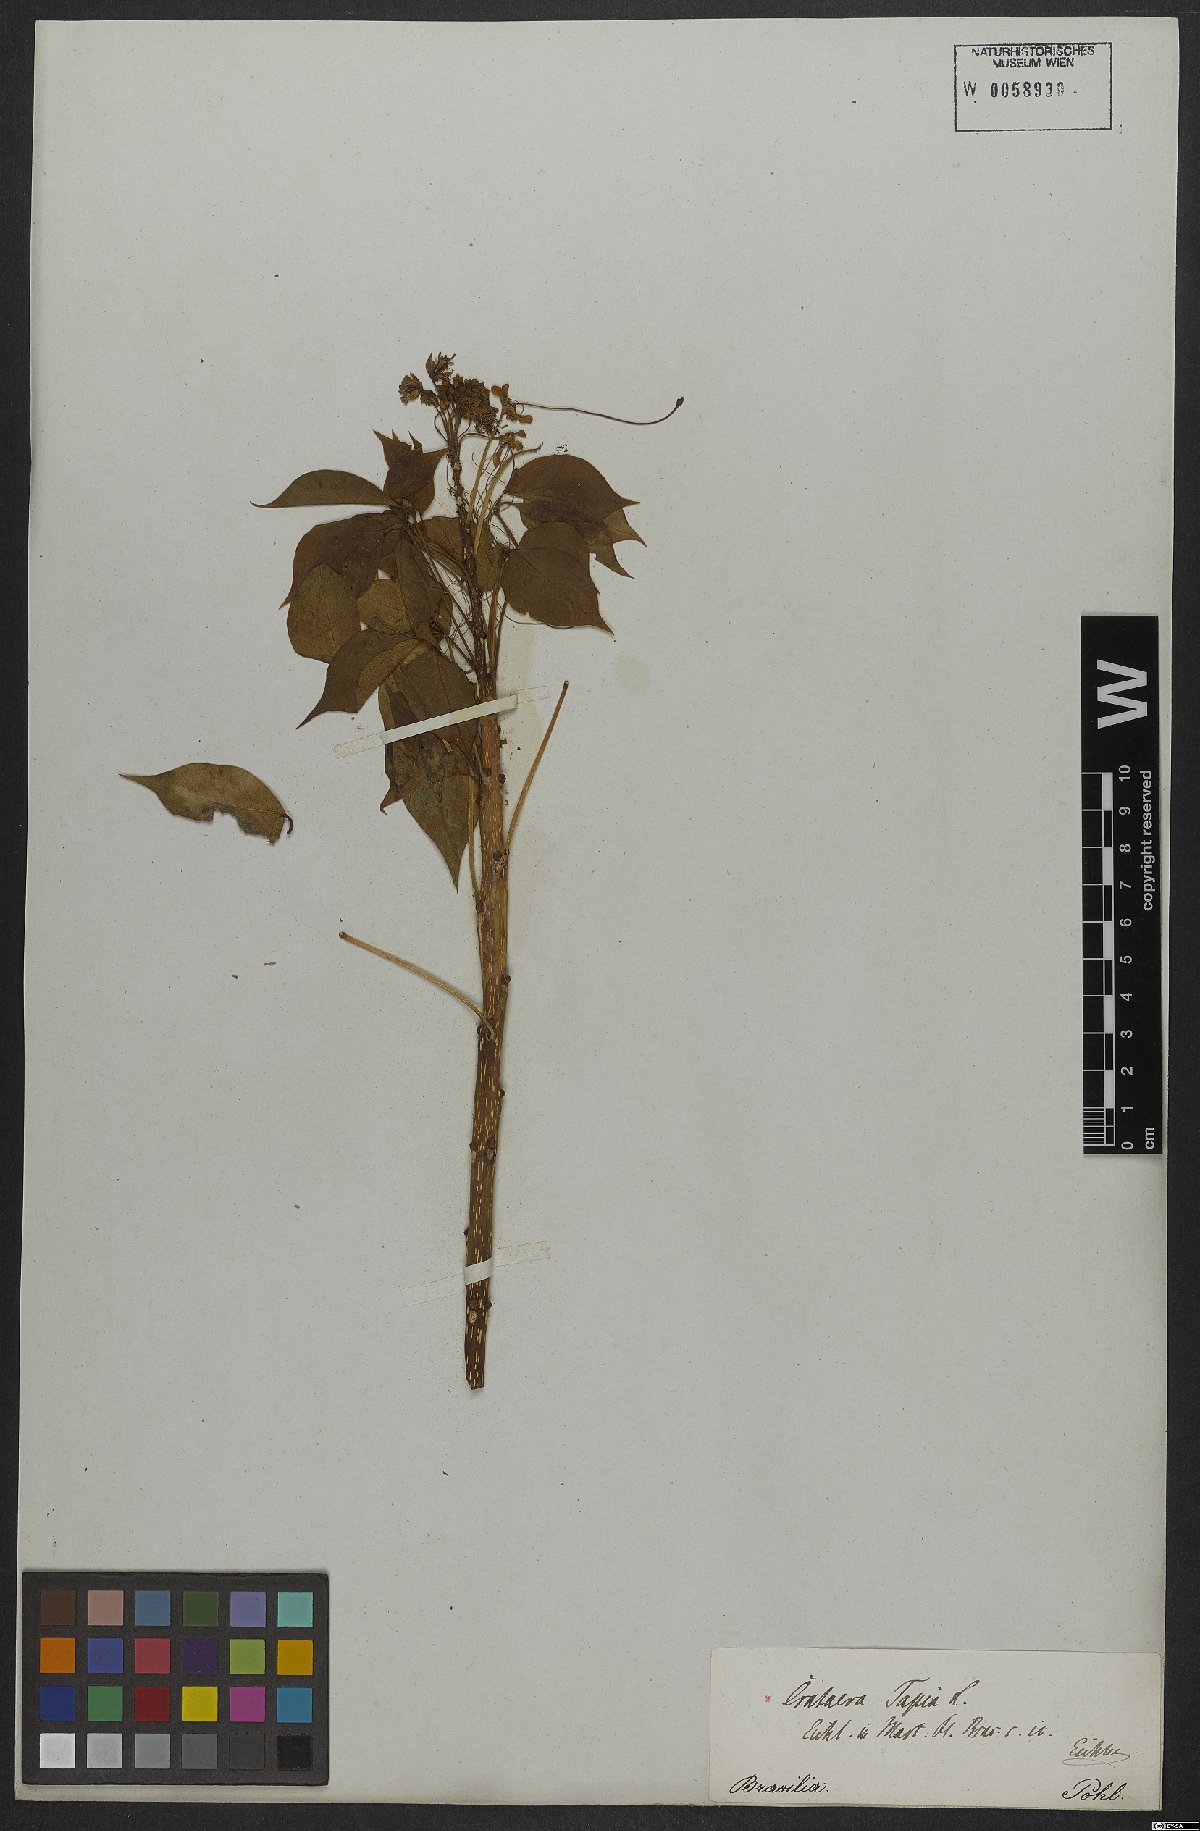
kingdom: Plantae
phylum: Tracheophyta
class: Magnoliopsida
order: Brassicales
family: Capparaceae
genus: Crateva
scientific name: Crateva tapia
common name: Garlic-pear
